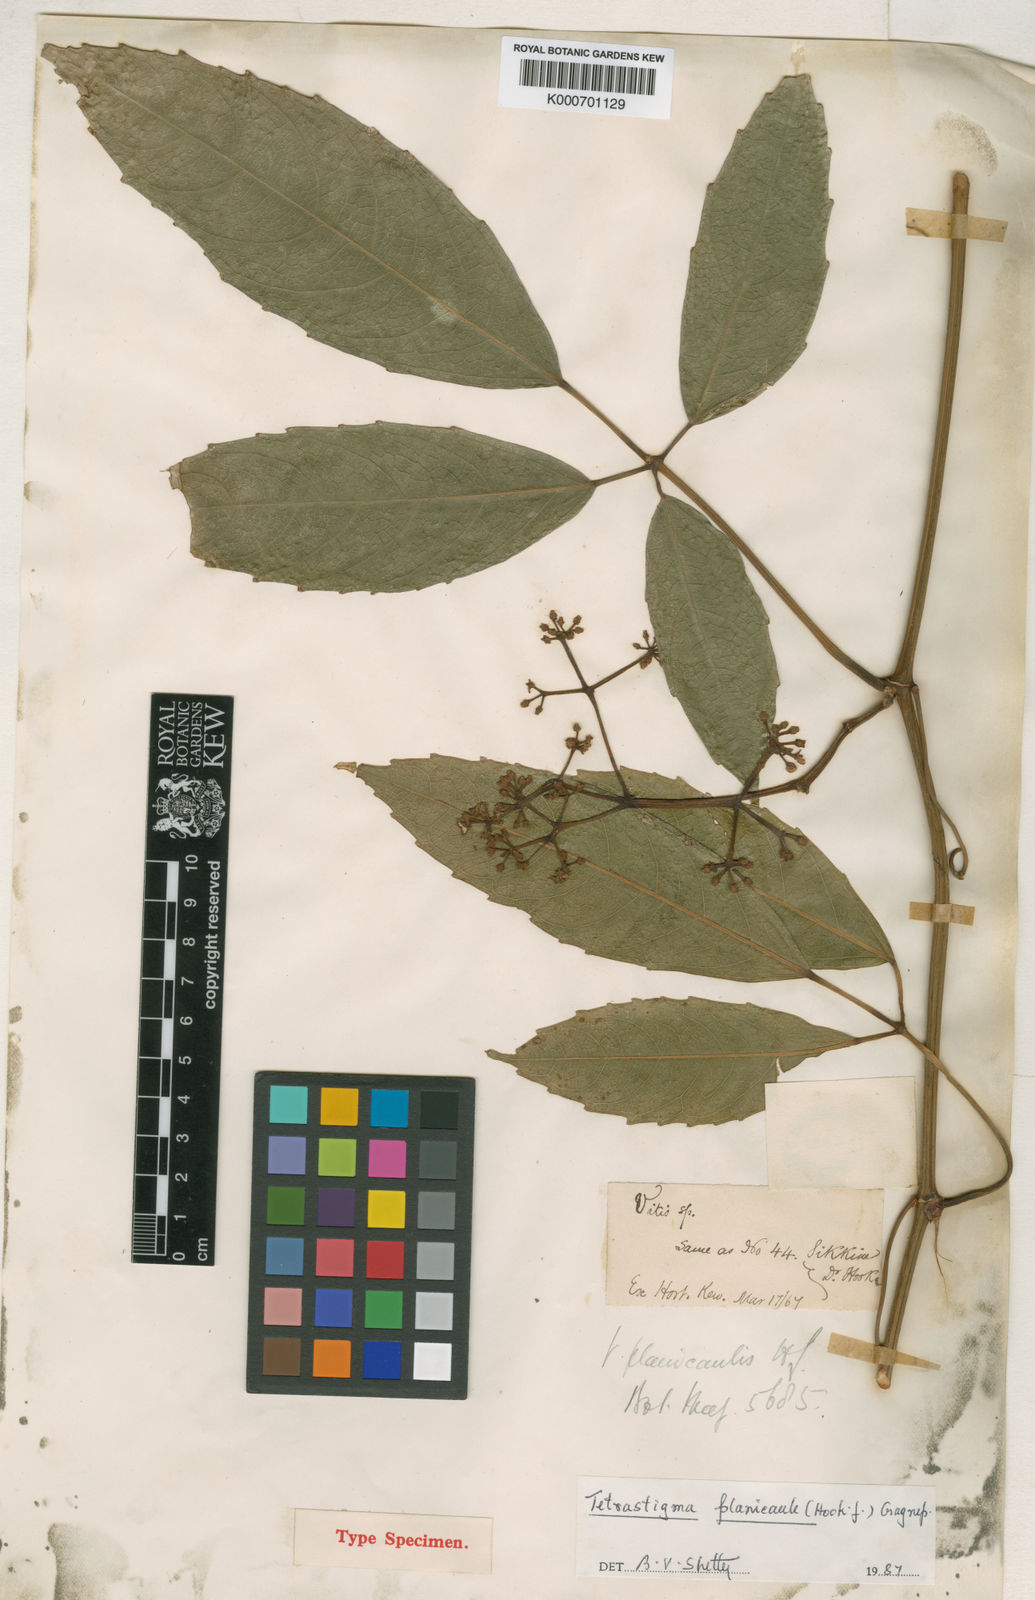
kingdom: Plantae
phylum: Tracheophyta
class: Magnoliopsida
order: Vitales
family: Vitaceae
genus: Tetrastigma
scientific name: Tetrastigma planicaule
